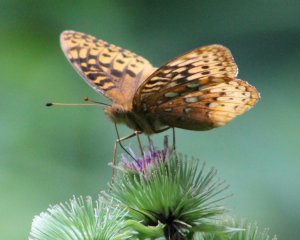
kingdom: Animalia
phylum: Arthropoda
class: Insecta
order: Lepidoptera
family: Nymphalidae
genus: Speyeria
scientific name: Speyeria cybele
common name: Great Spangled Fritillary
